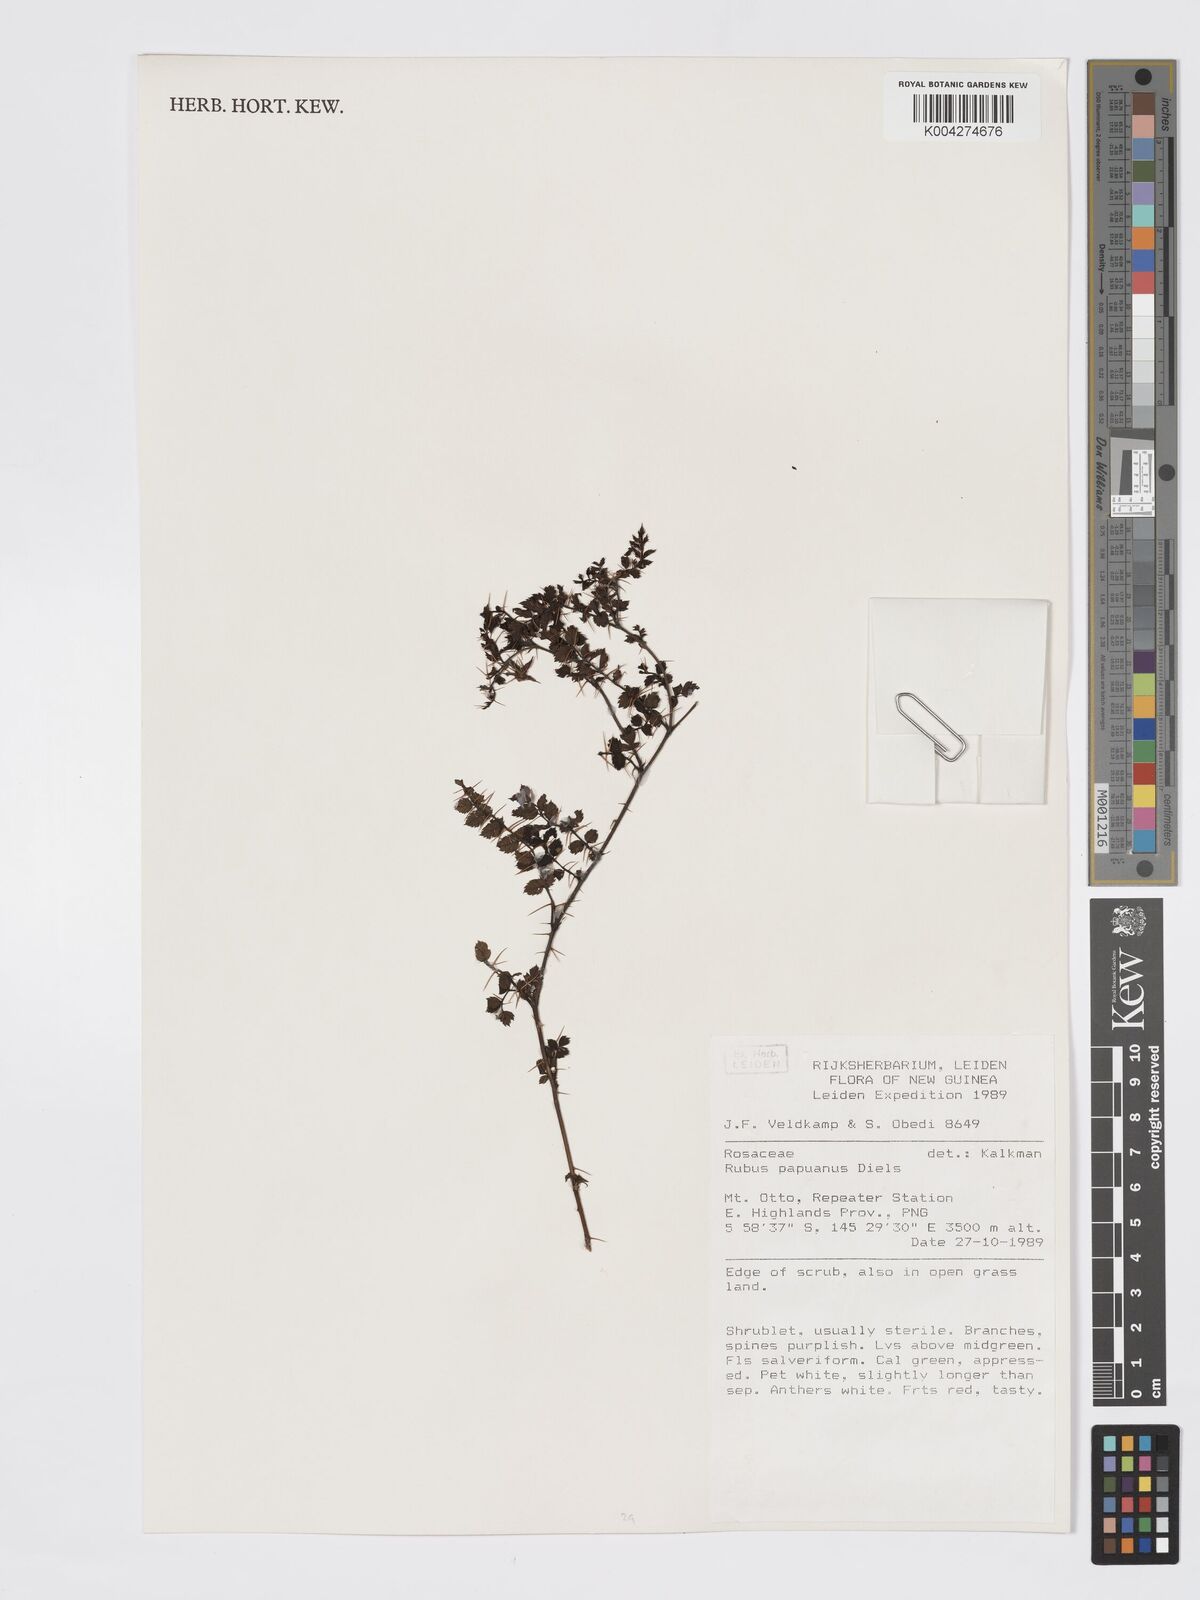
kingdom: Plantae
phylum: Tracheophyta
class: Magnoliopsida
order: Rosales
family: Rosaceae
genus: Rubus
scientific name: Rubus papuanus
